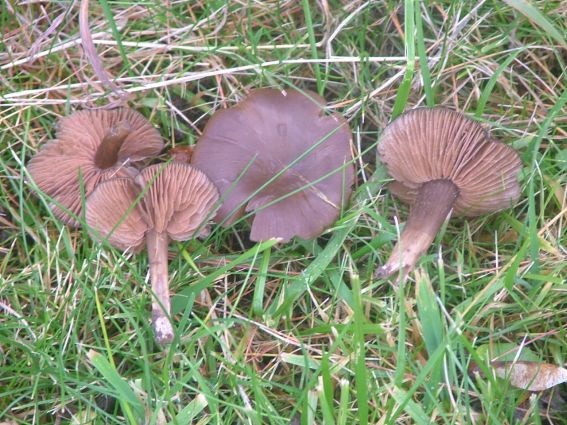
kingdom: Fungi
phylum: Basidiomycota
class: Agaricomycetes
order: Agaricales
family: Entolomataceae
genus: Entoloma
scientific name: Entoloma sericeum
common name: silkeglinsende rødblad
